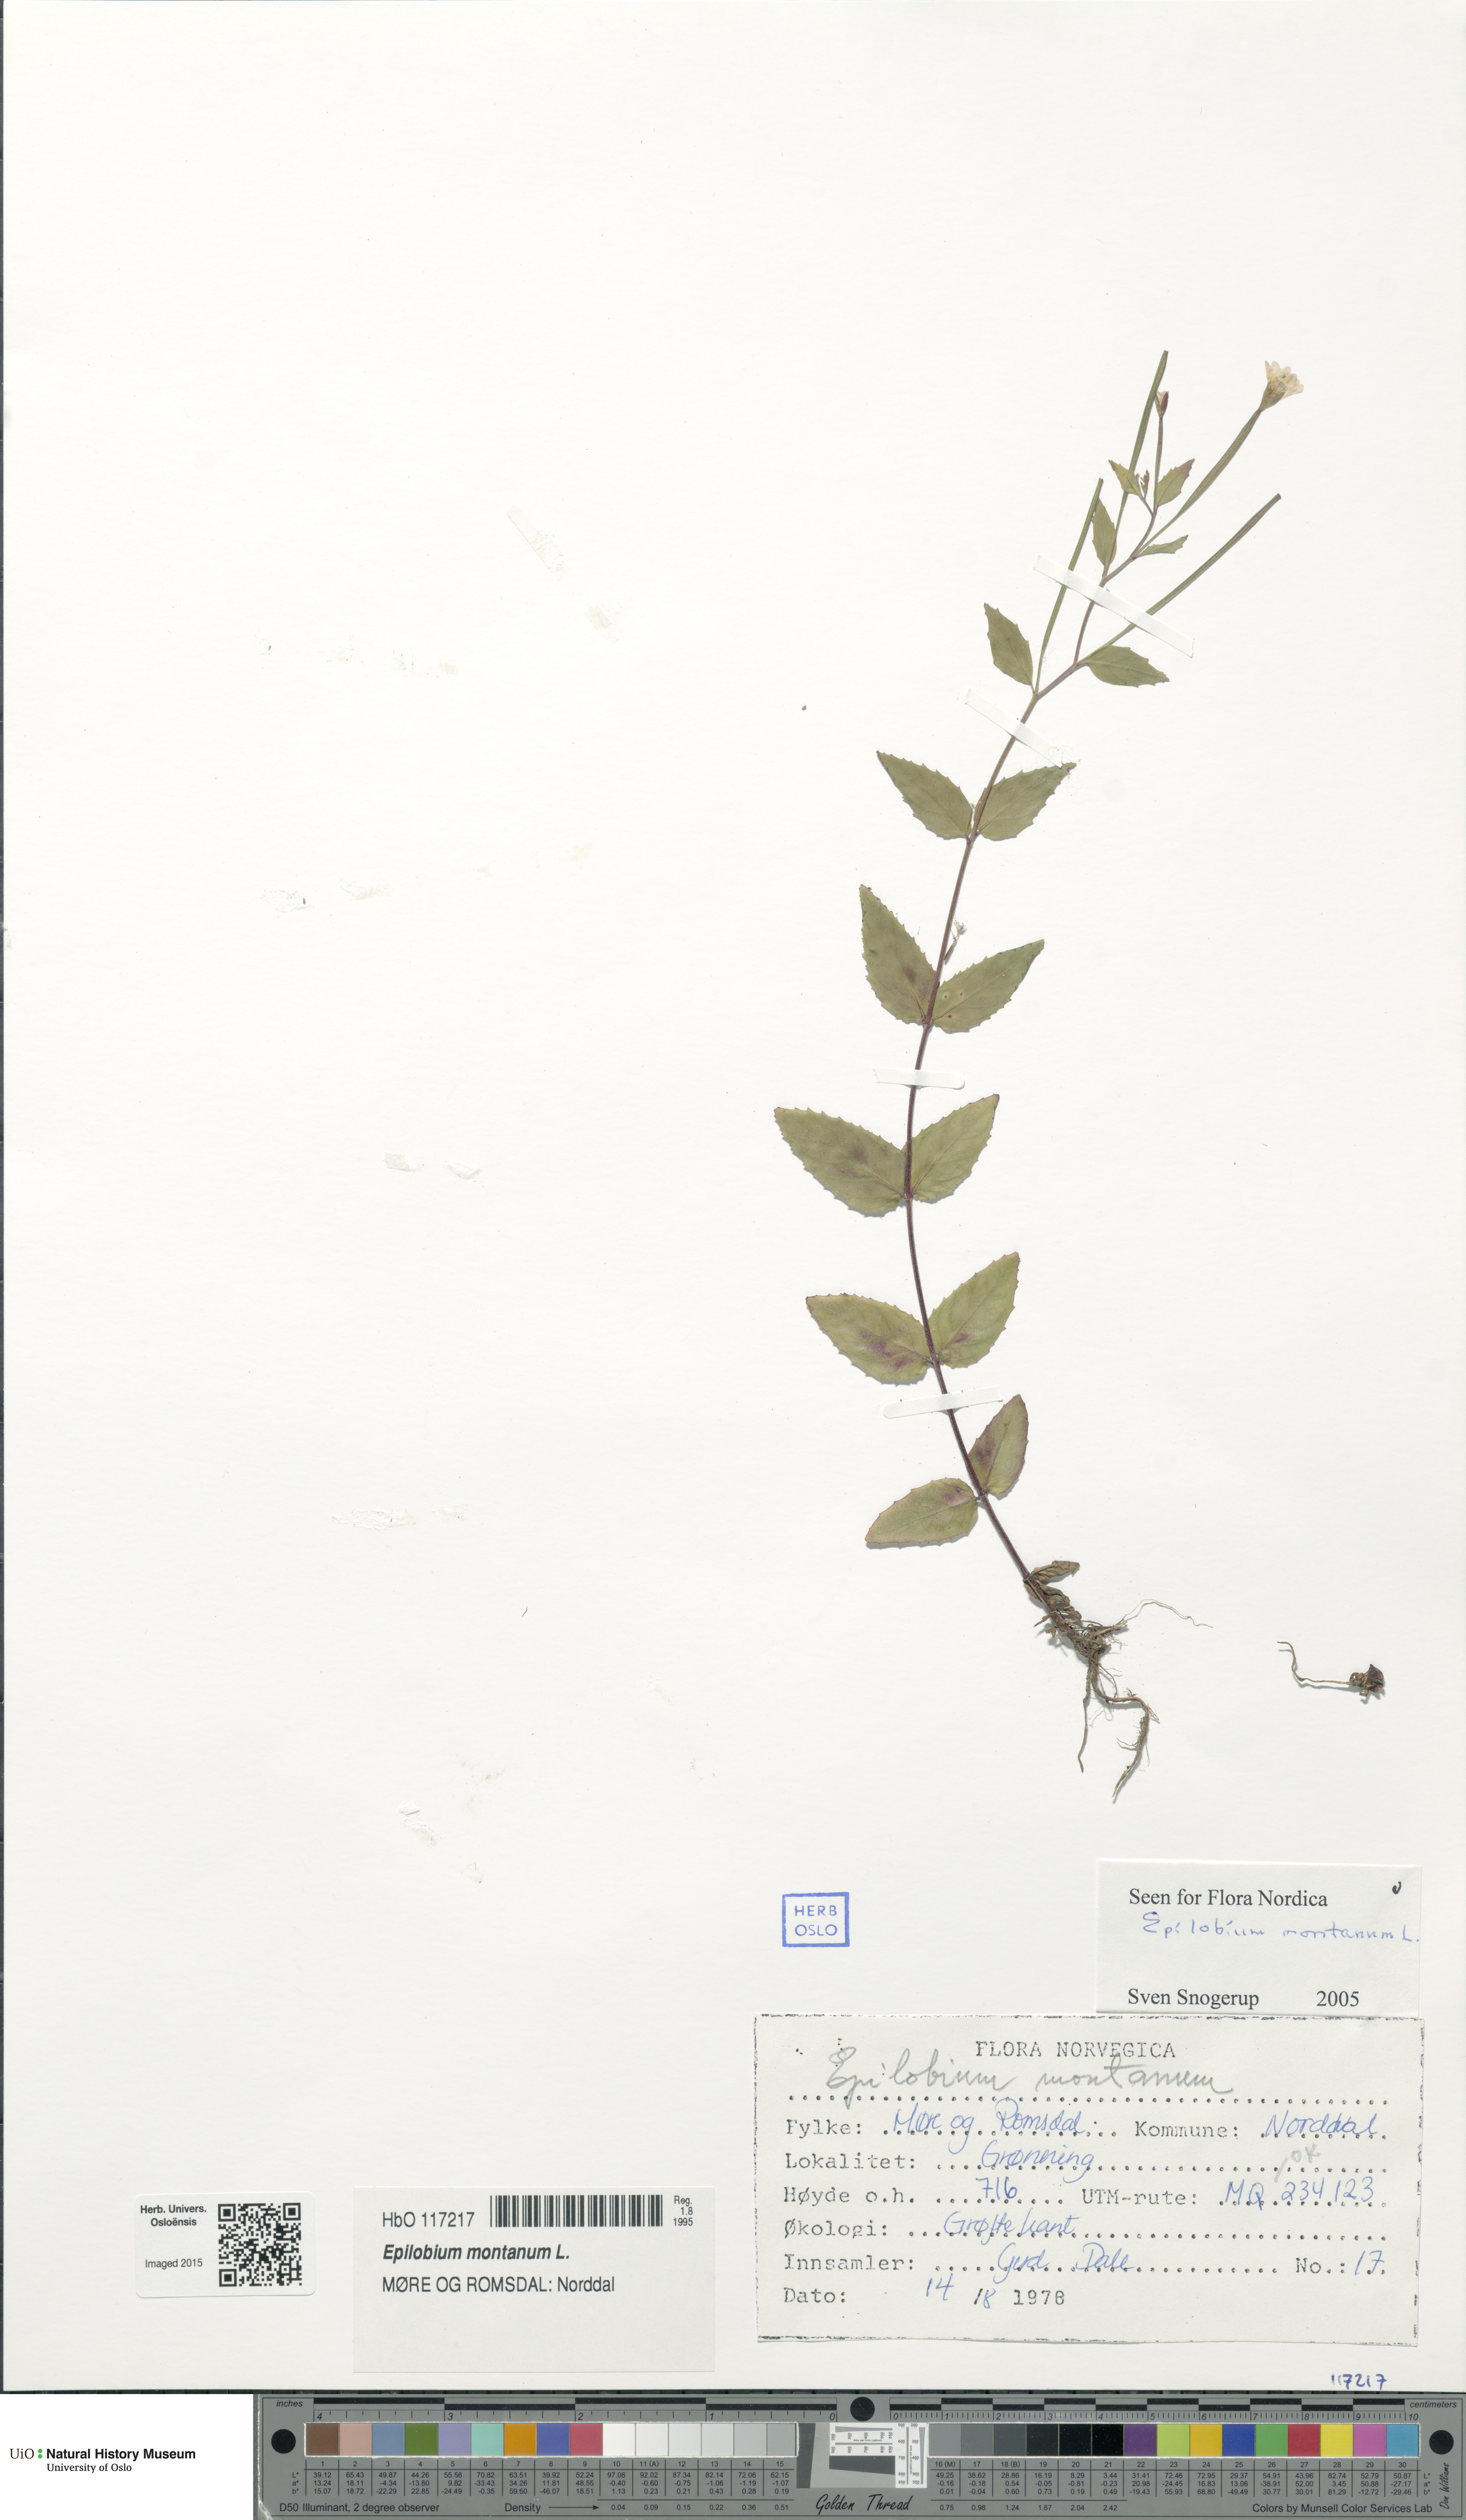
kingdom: Plantae
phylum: Tracheophyta
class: Magnoliopsida
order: Myrtales
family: Onagraceae
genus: Epilobium
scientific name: Epilobium montanum
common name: Broad-leaved willowherb
